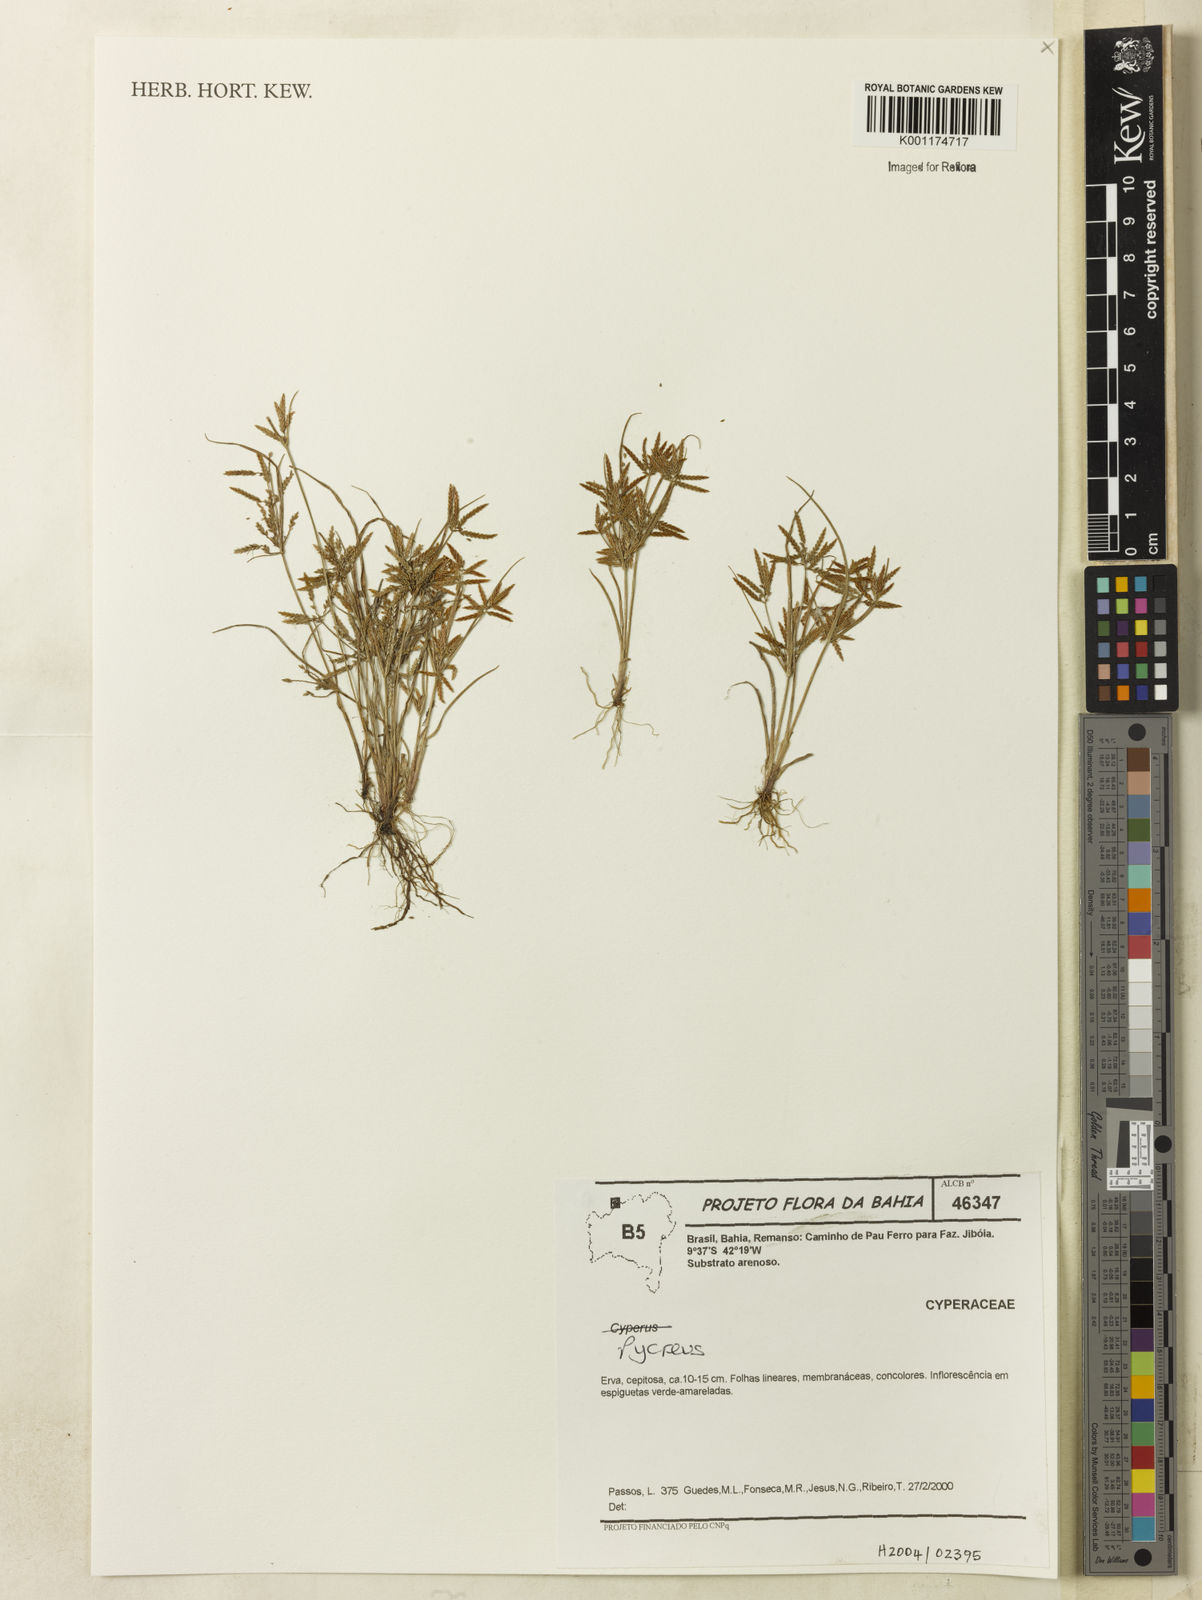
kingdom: Plantae
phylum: Tracheophyta
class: Liliopsida
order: Poales
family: Cyperaceae
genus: Cyperus
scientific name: Cyperus fugax
